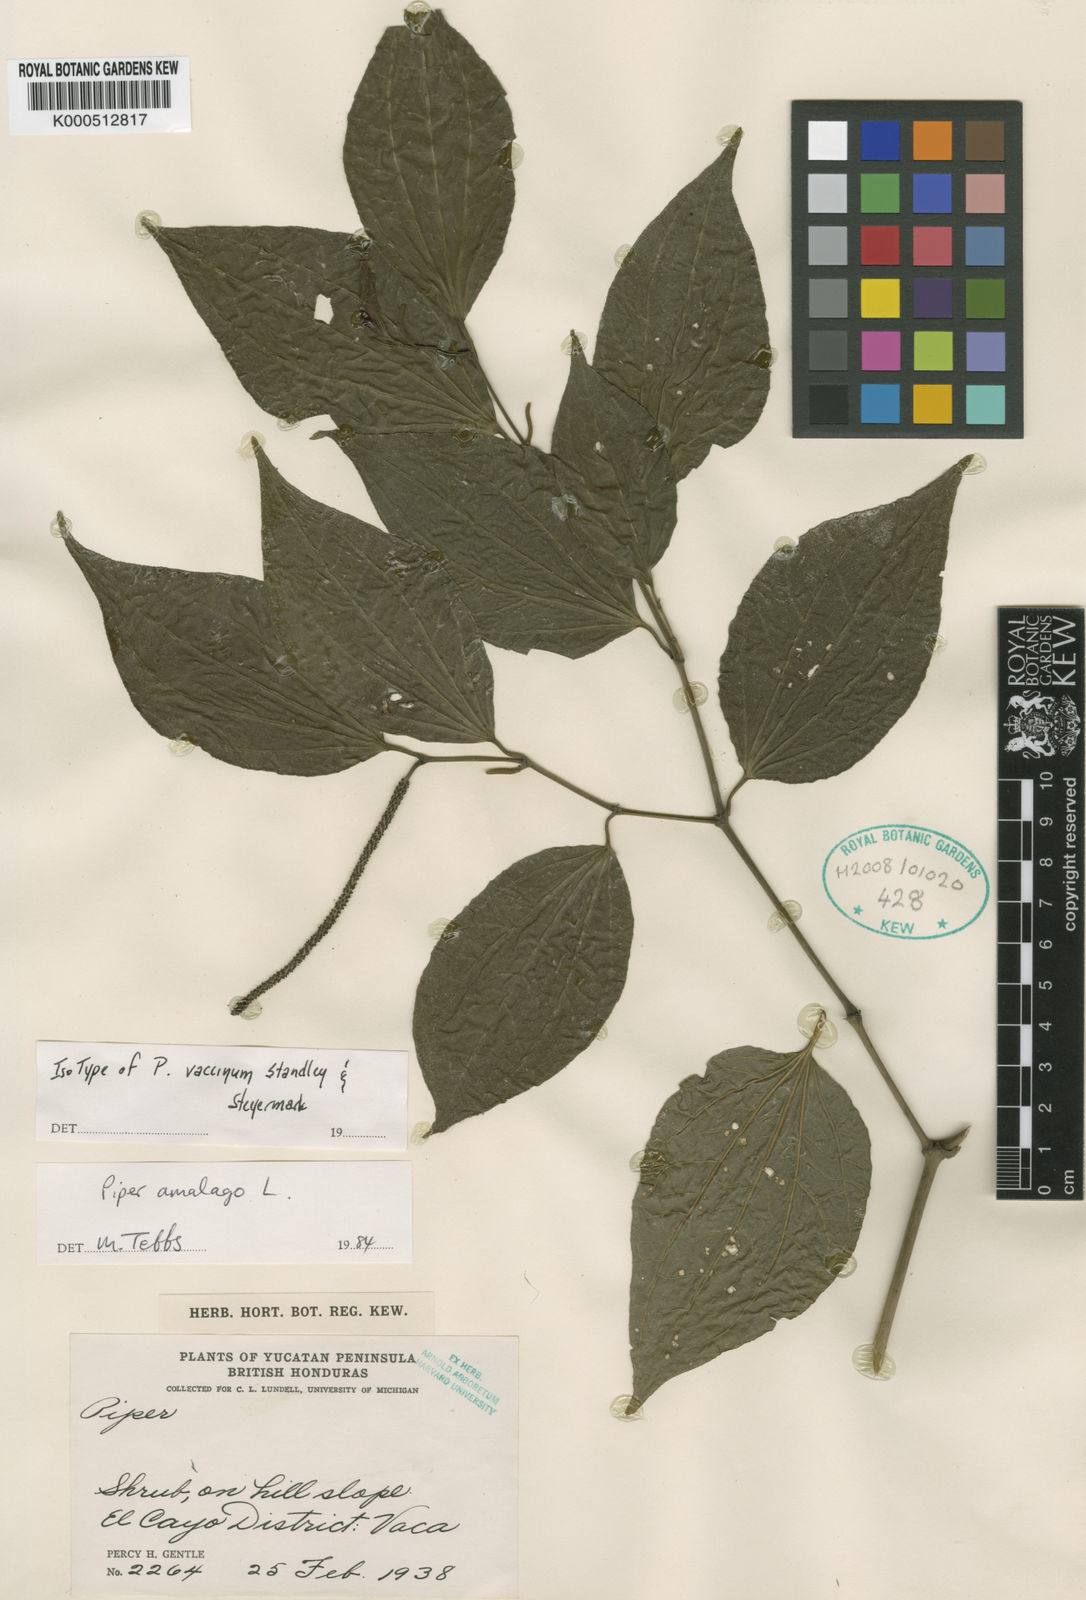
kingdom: Plantae
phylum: Tracheophyta
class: Magnoliopsida
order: Piperales
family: Piperaceae
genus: Piper
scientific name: Piper martensianum
